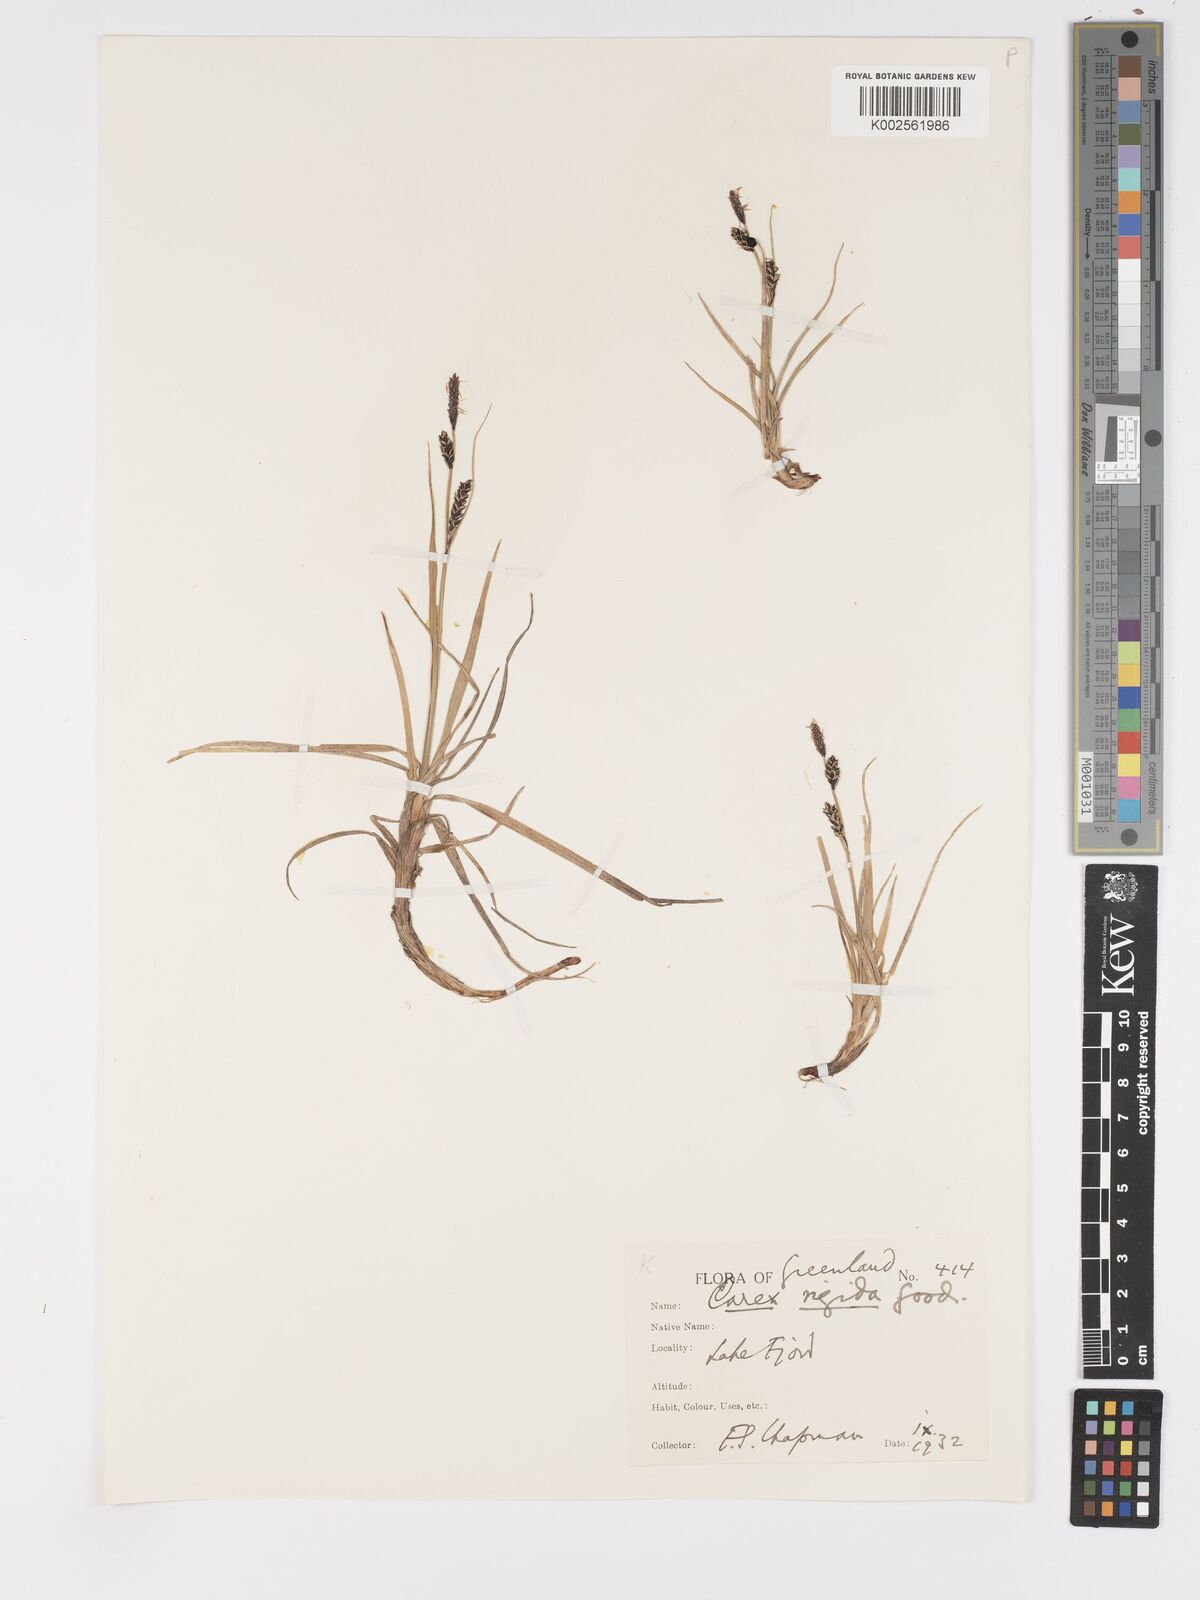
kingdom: Plantae
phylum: Tracheophyta
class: Liliopsida
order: Poales
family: Cyperaceae
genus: Carex
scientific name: Carex bigelowii
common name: Stiff sedge
